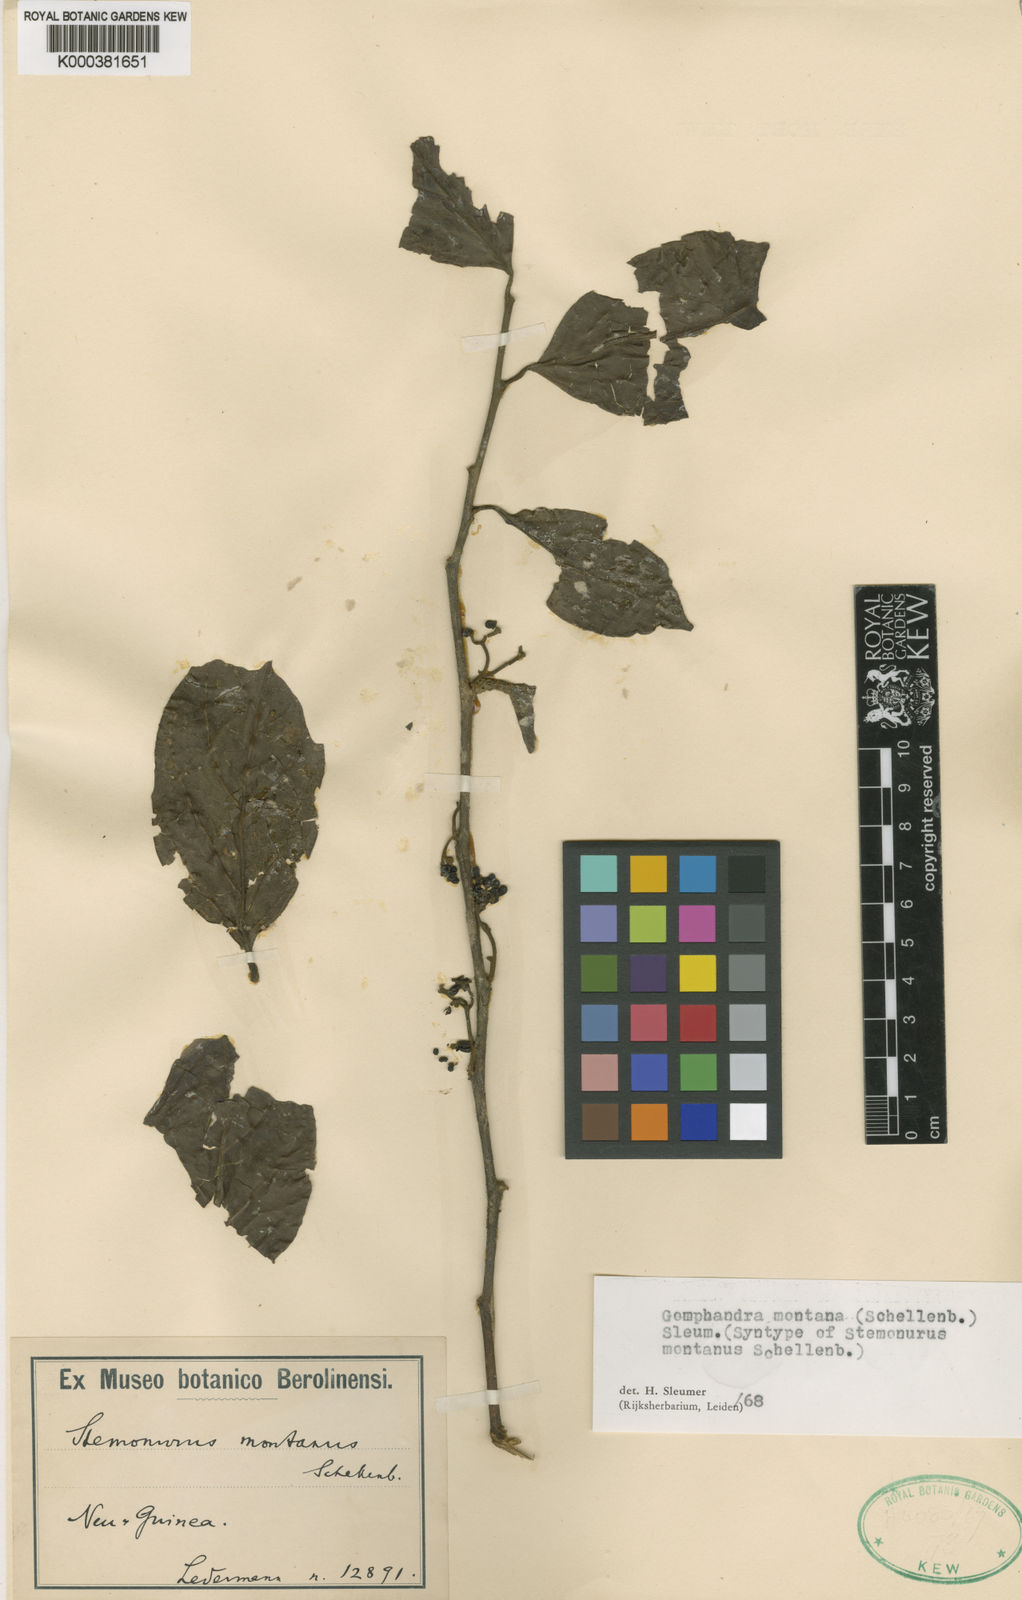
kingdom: Plantae
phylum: Tracheophyta
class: Magnoliopsida
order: Cardiopteridales
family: Stemonuraceae
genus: Gomphandra
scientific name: Gomphandra montana
